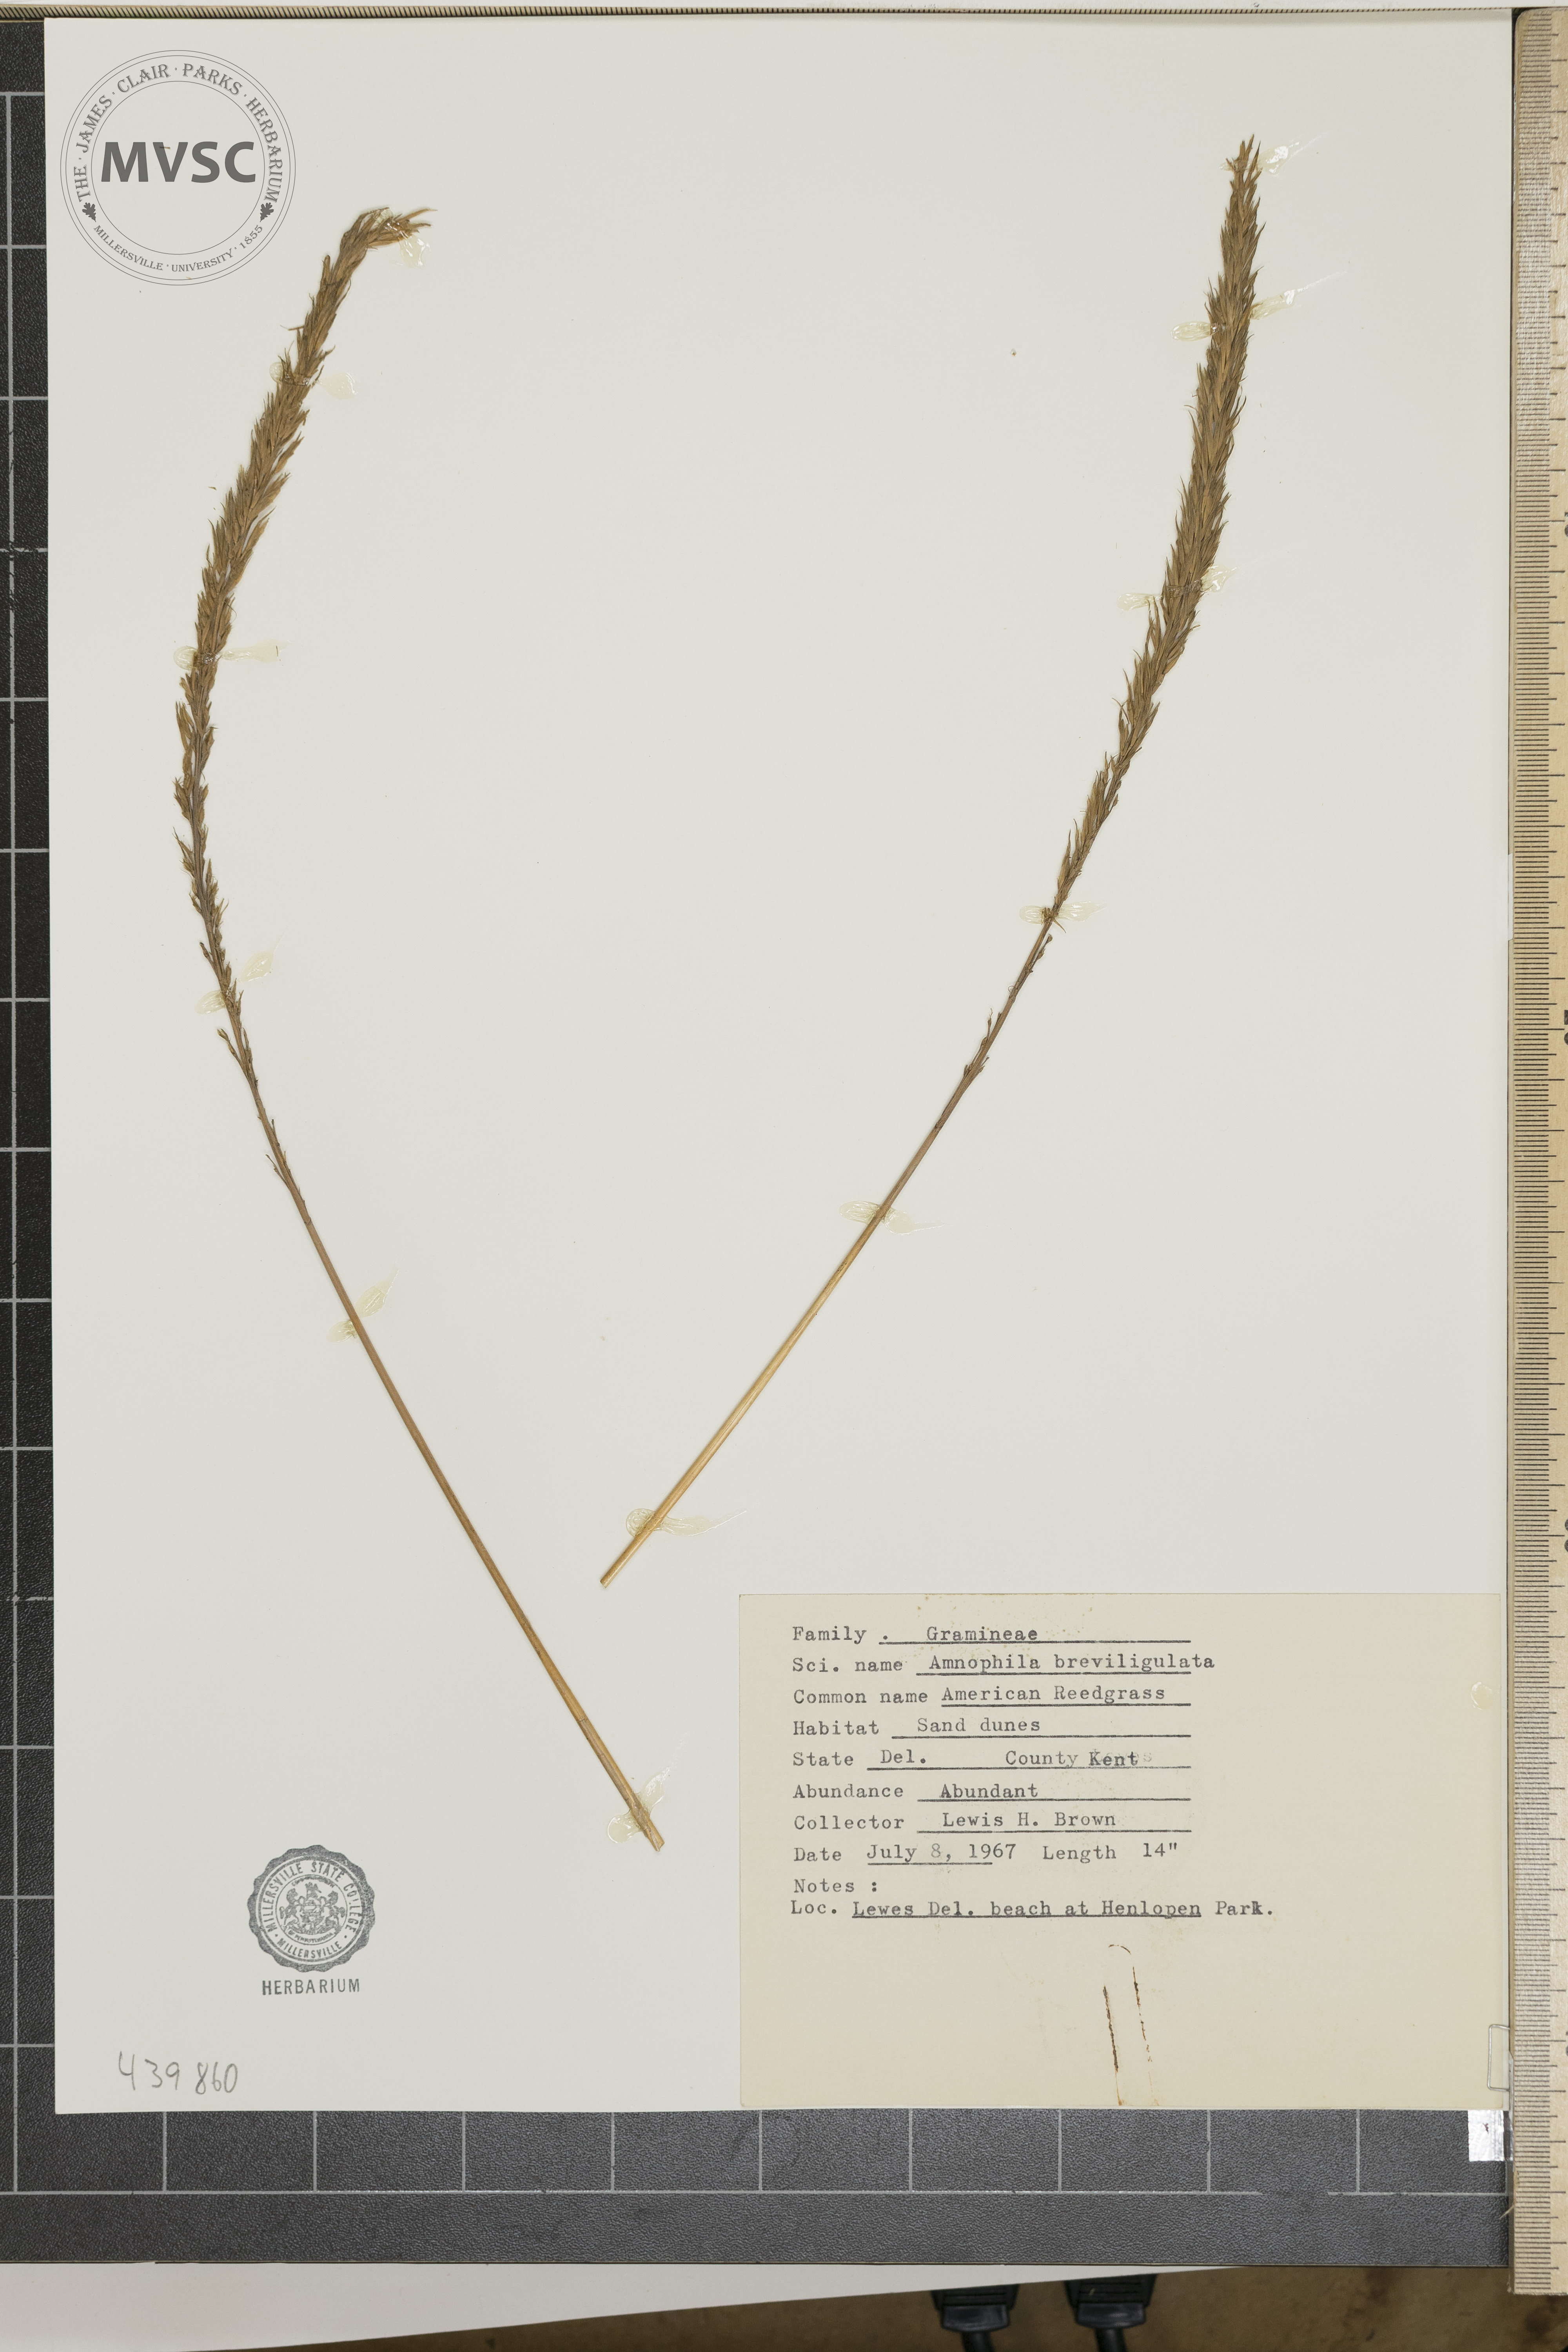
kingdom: Plantae
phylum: Tracheophyta
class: Liliopsida
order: Poales
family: Poaceae
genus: Calamagrostis
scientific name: Calamagrostis breviligulata
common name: American reedgrass
